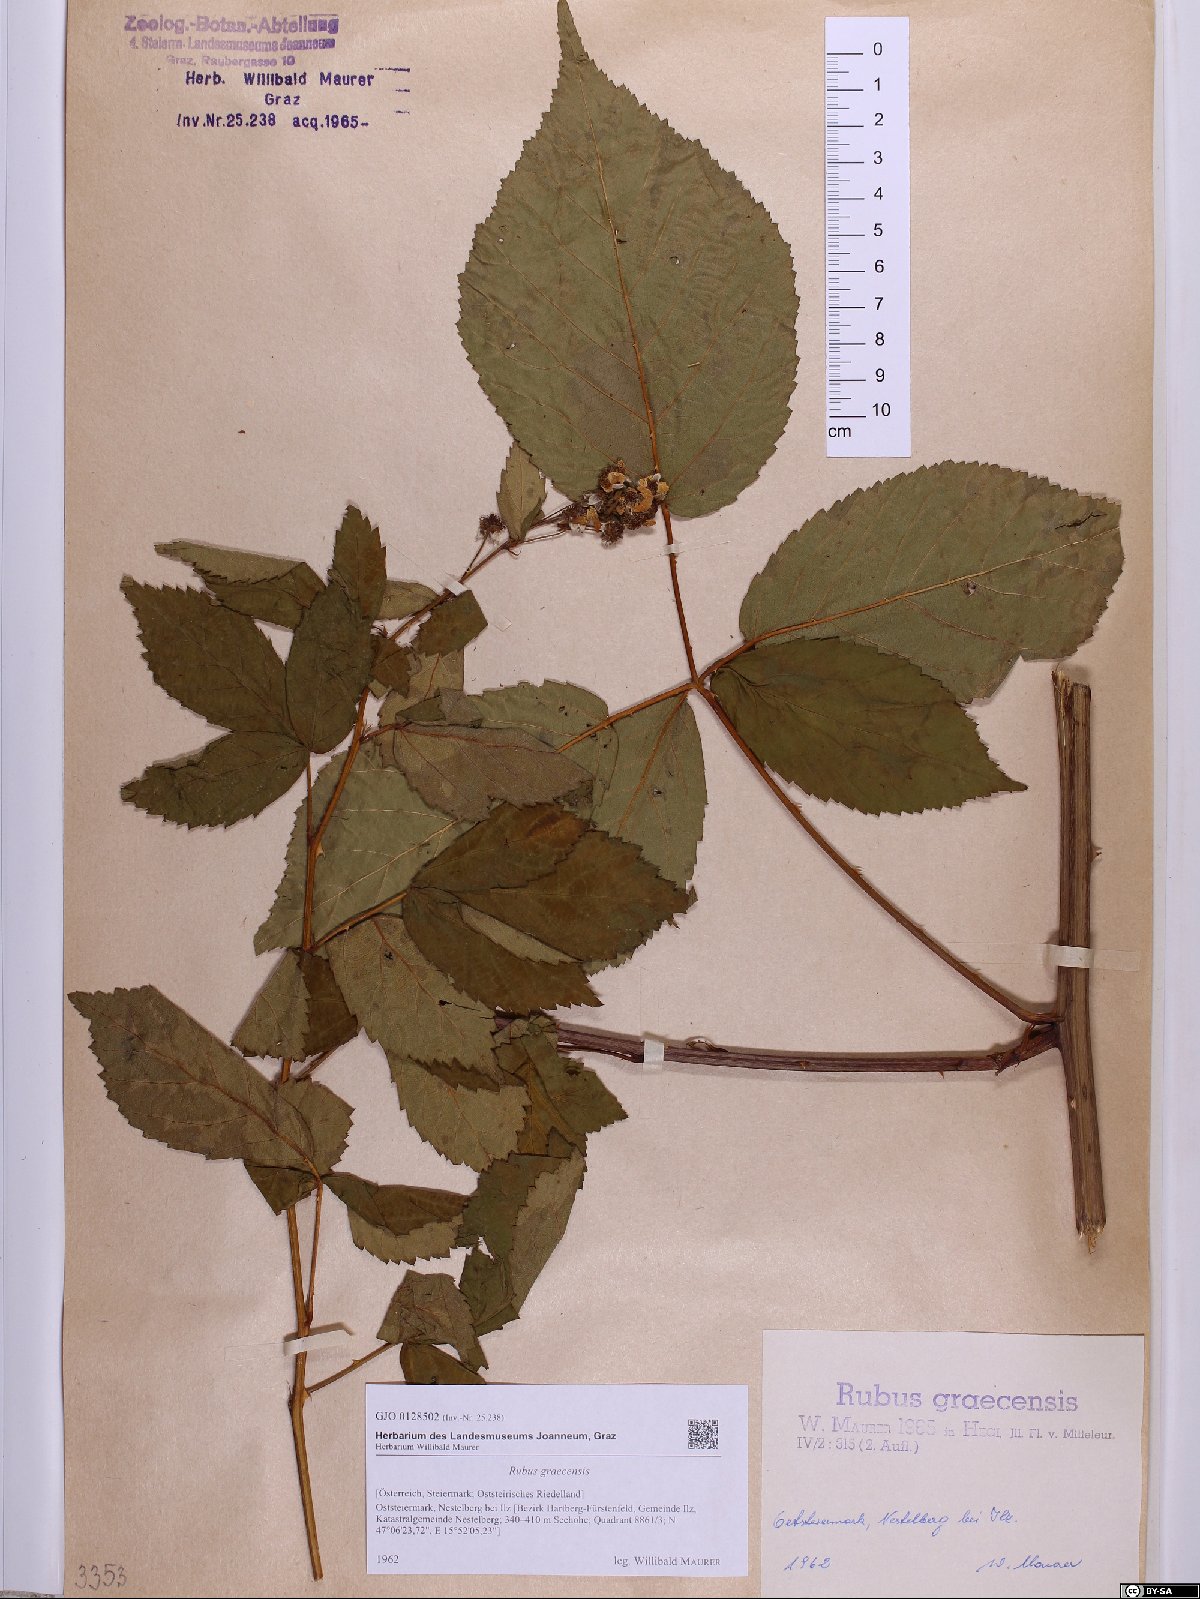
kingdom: Plantae
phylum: Tracheophyta
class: Magnoliopsida
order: Rosales
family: Rosaceae
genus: Rubus
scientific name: Rubus graecensis
